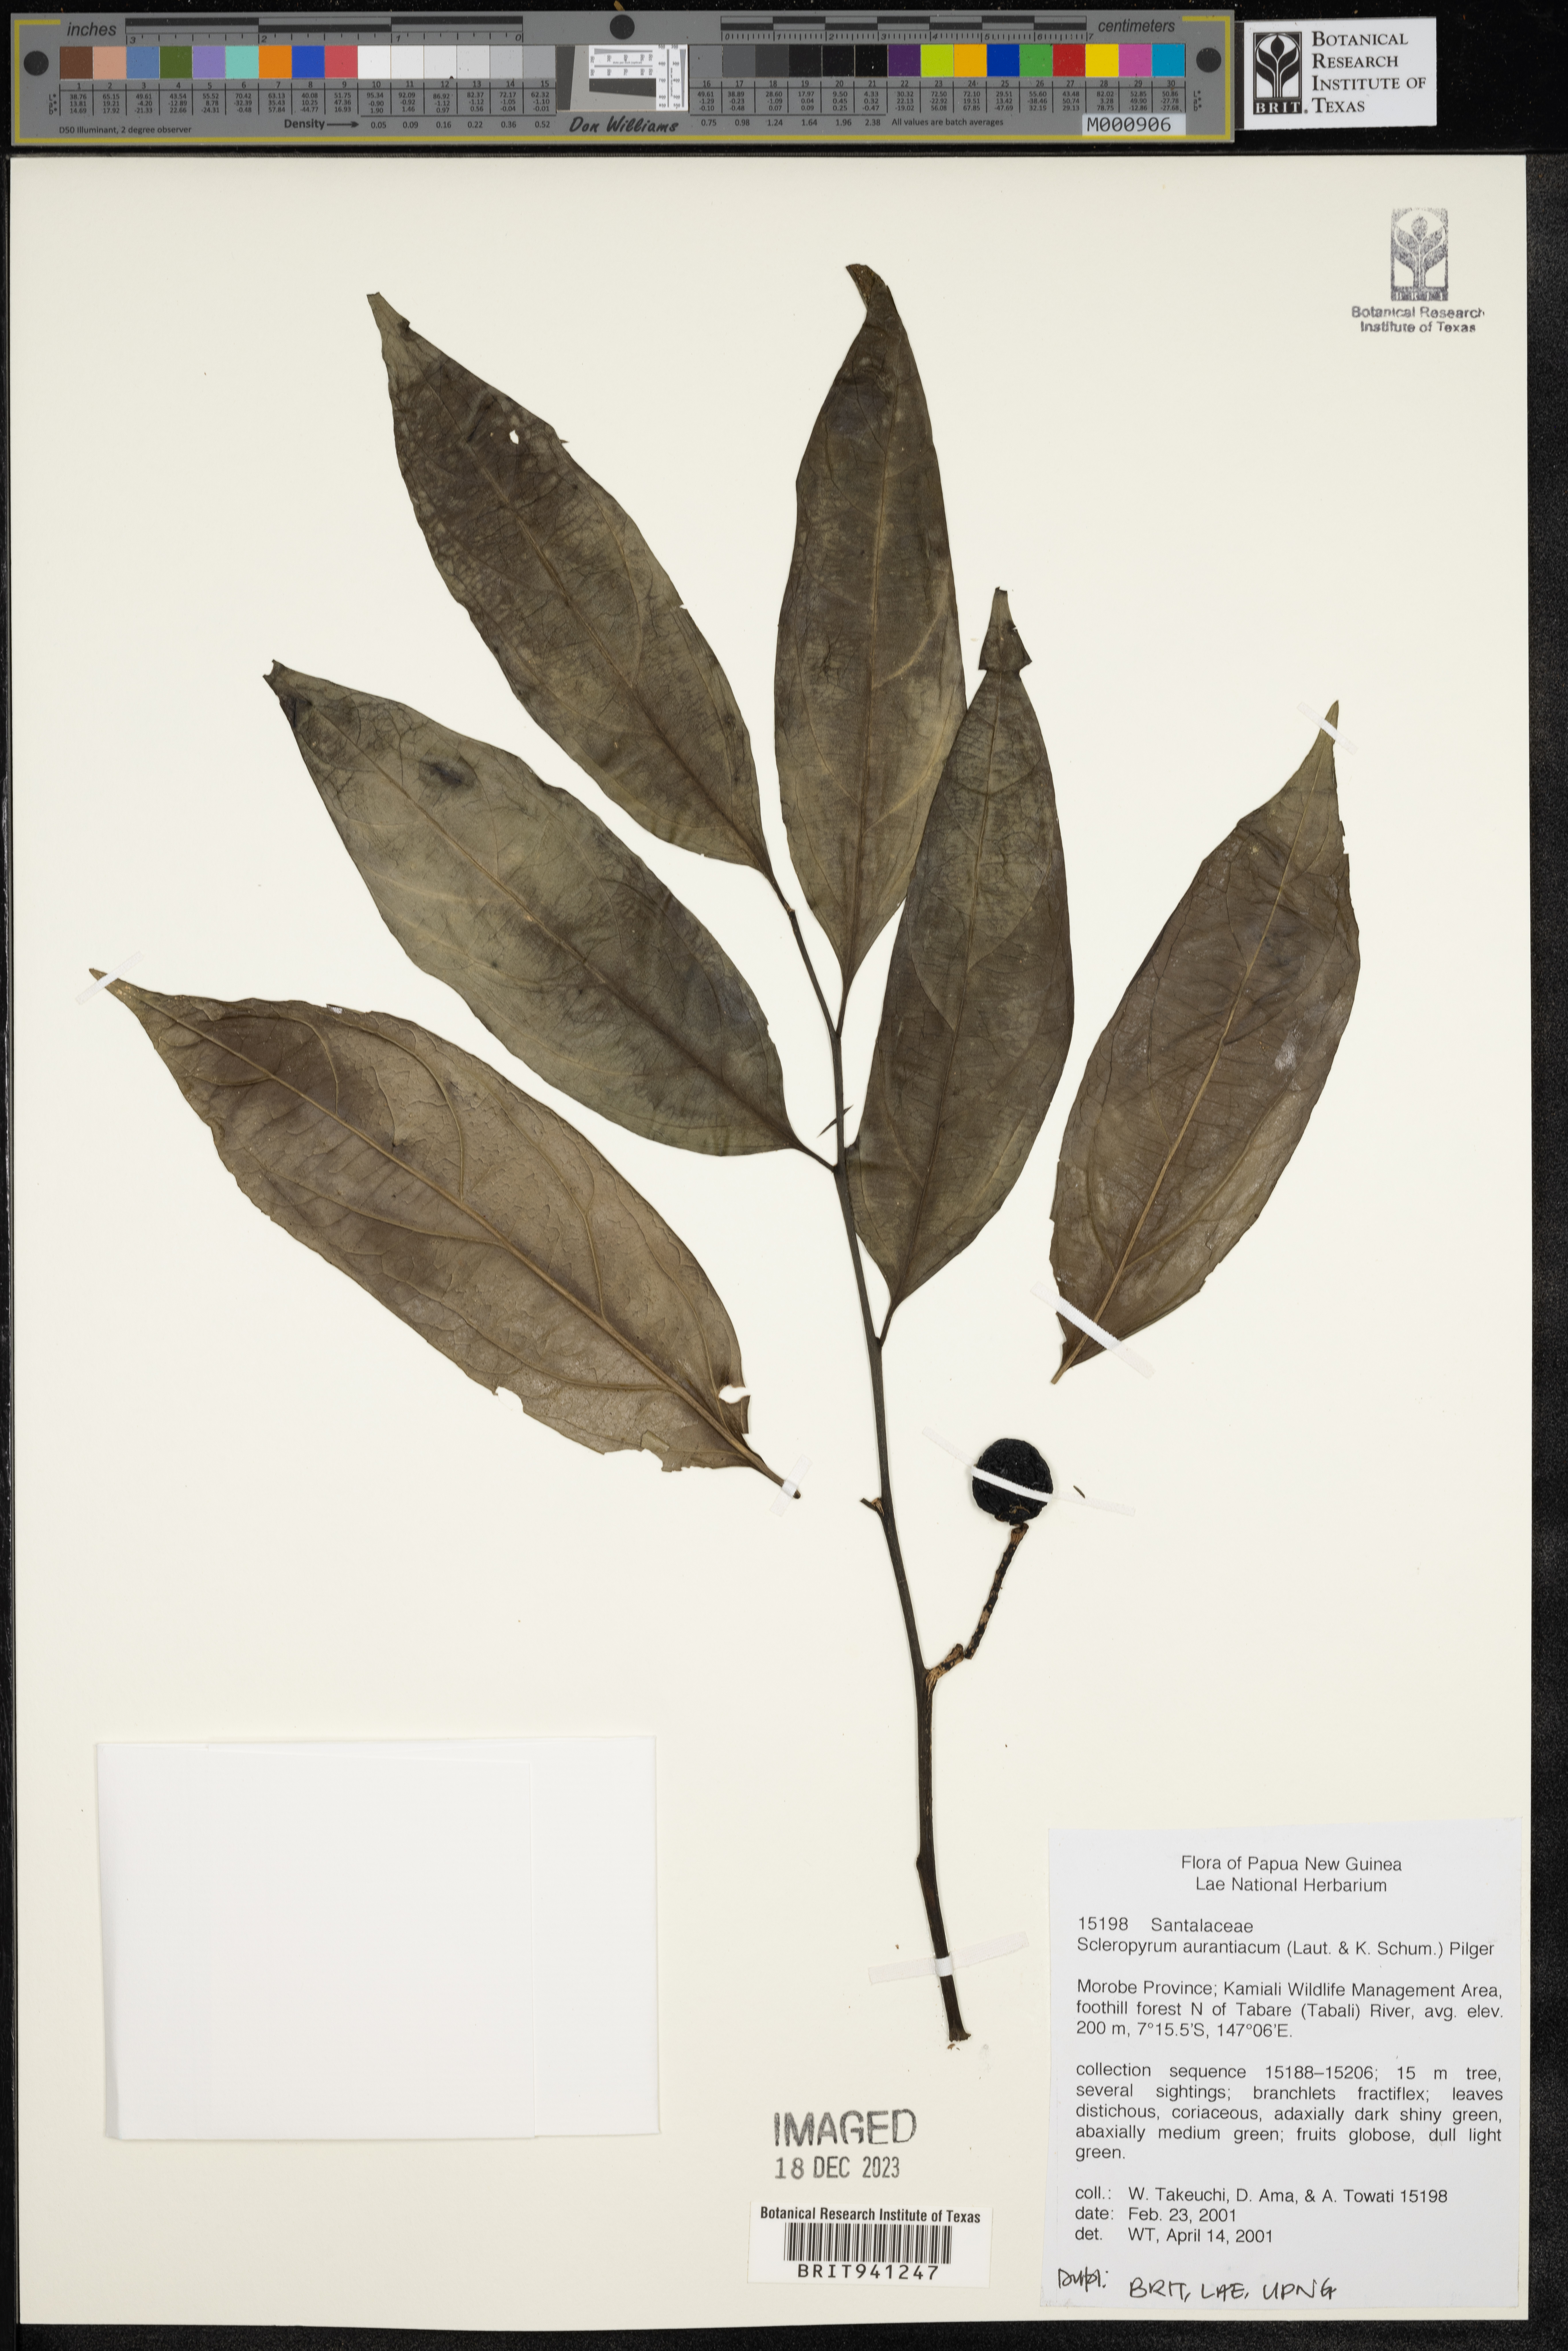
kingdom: Plantae
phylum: Tracheophyta
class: Magnoliopsida
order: Santalales
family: Cervantesiaceae
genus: Scleropyrum
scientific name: Scleropyrum
